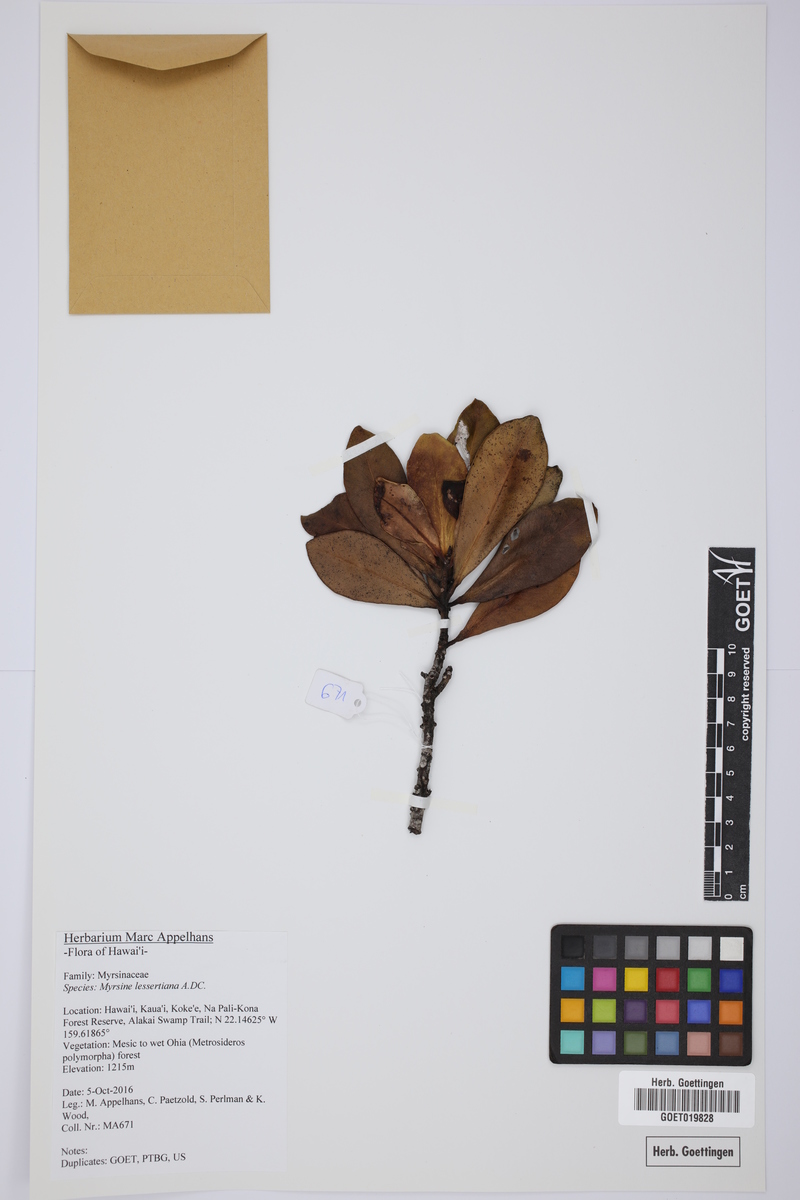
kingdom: Plantae
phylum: Tracheophyta
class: Magnoliopsida
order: Ericales
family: Primulaceae
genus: Myrsine
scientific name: Myrsine lessertiana
